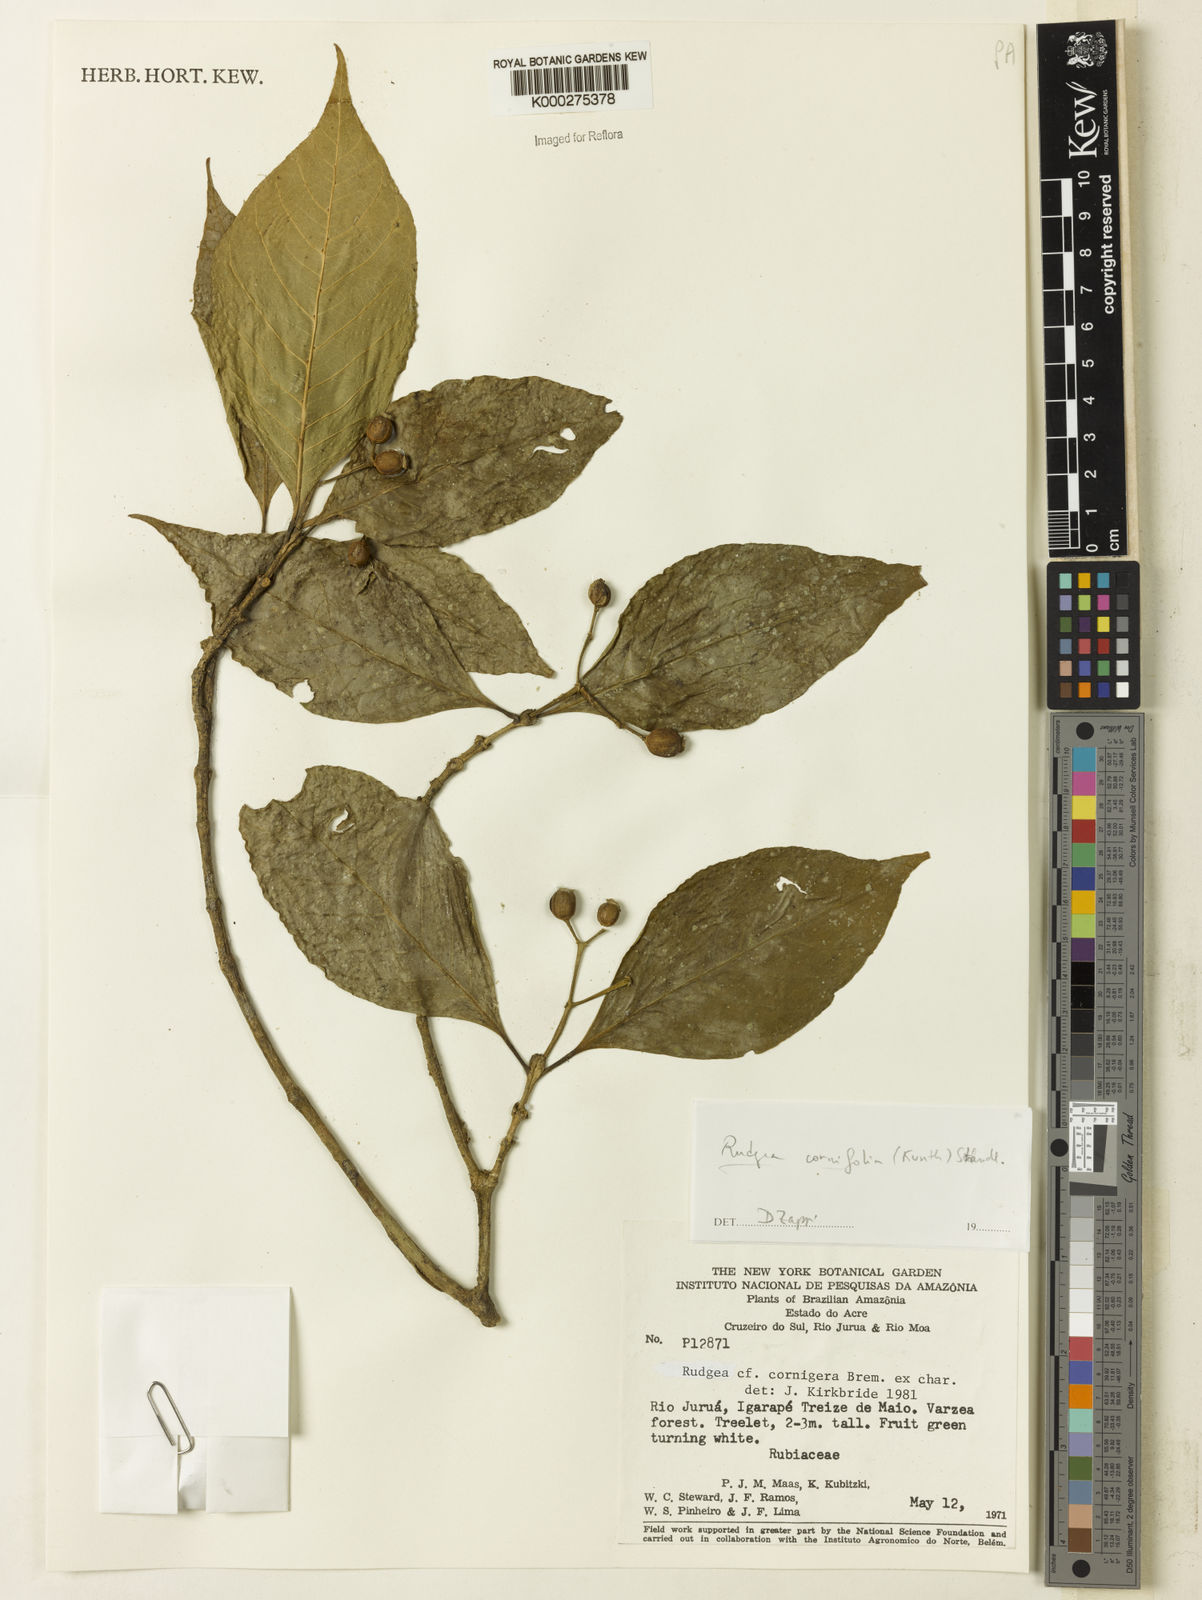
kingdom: Plantae
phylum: Tracheophyta
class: Magnoliopsida
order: Gentianales
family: Rubiaceae
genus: Rudgea
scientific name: Rudgea cornifolia
